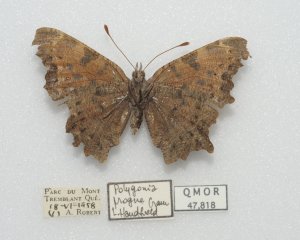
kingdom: Animalia
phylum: Arthropoda
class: Insecta
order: Lepidoptera
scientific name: Lepidoptera
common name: Butterflies
